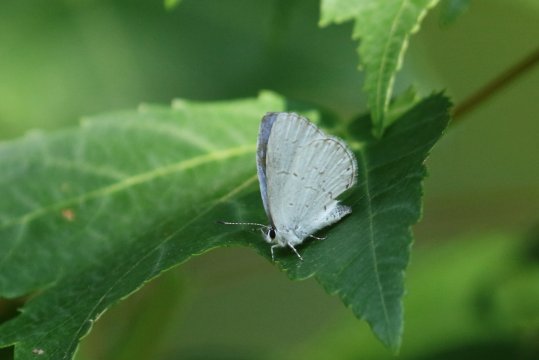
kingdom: Animalia
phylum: Arthropoda
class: Insecta
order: Lepidoptera
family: Lycaenidae
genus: Cyaniris
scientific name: Cyaniris neglecta
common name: Summer Azure
